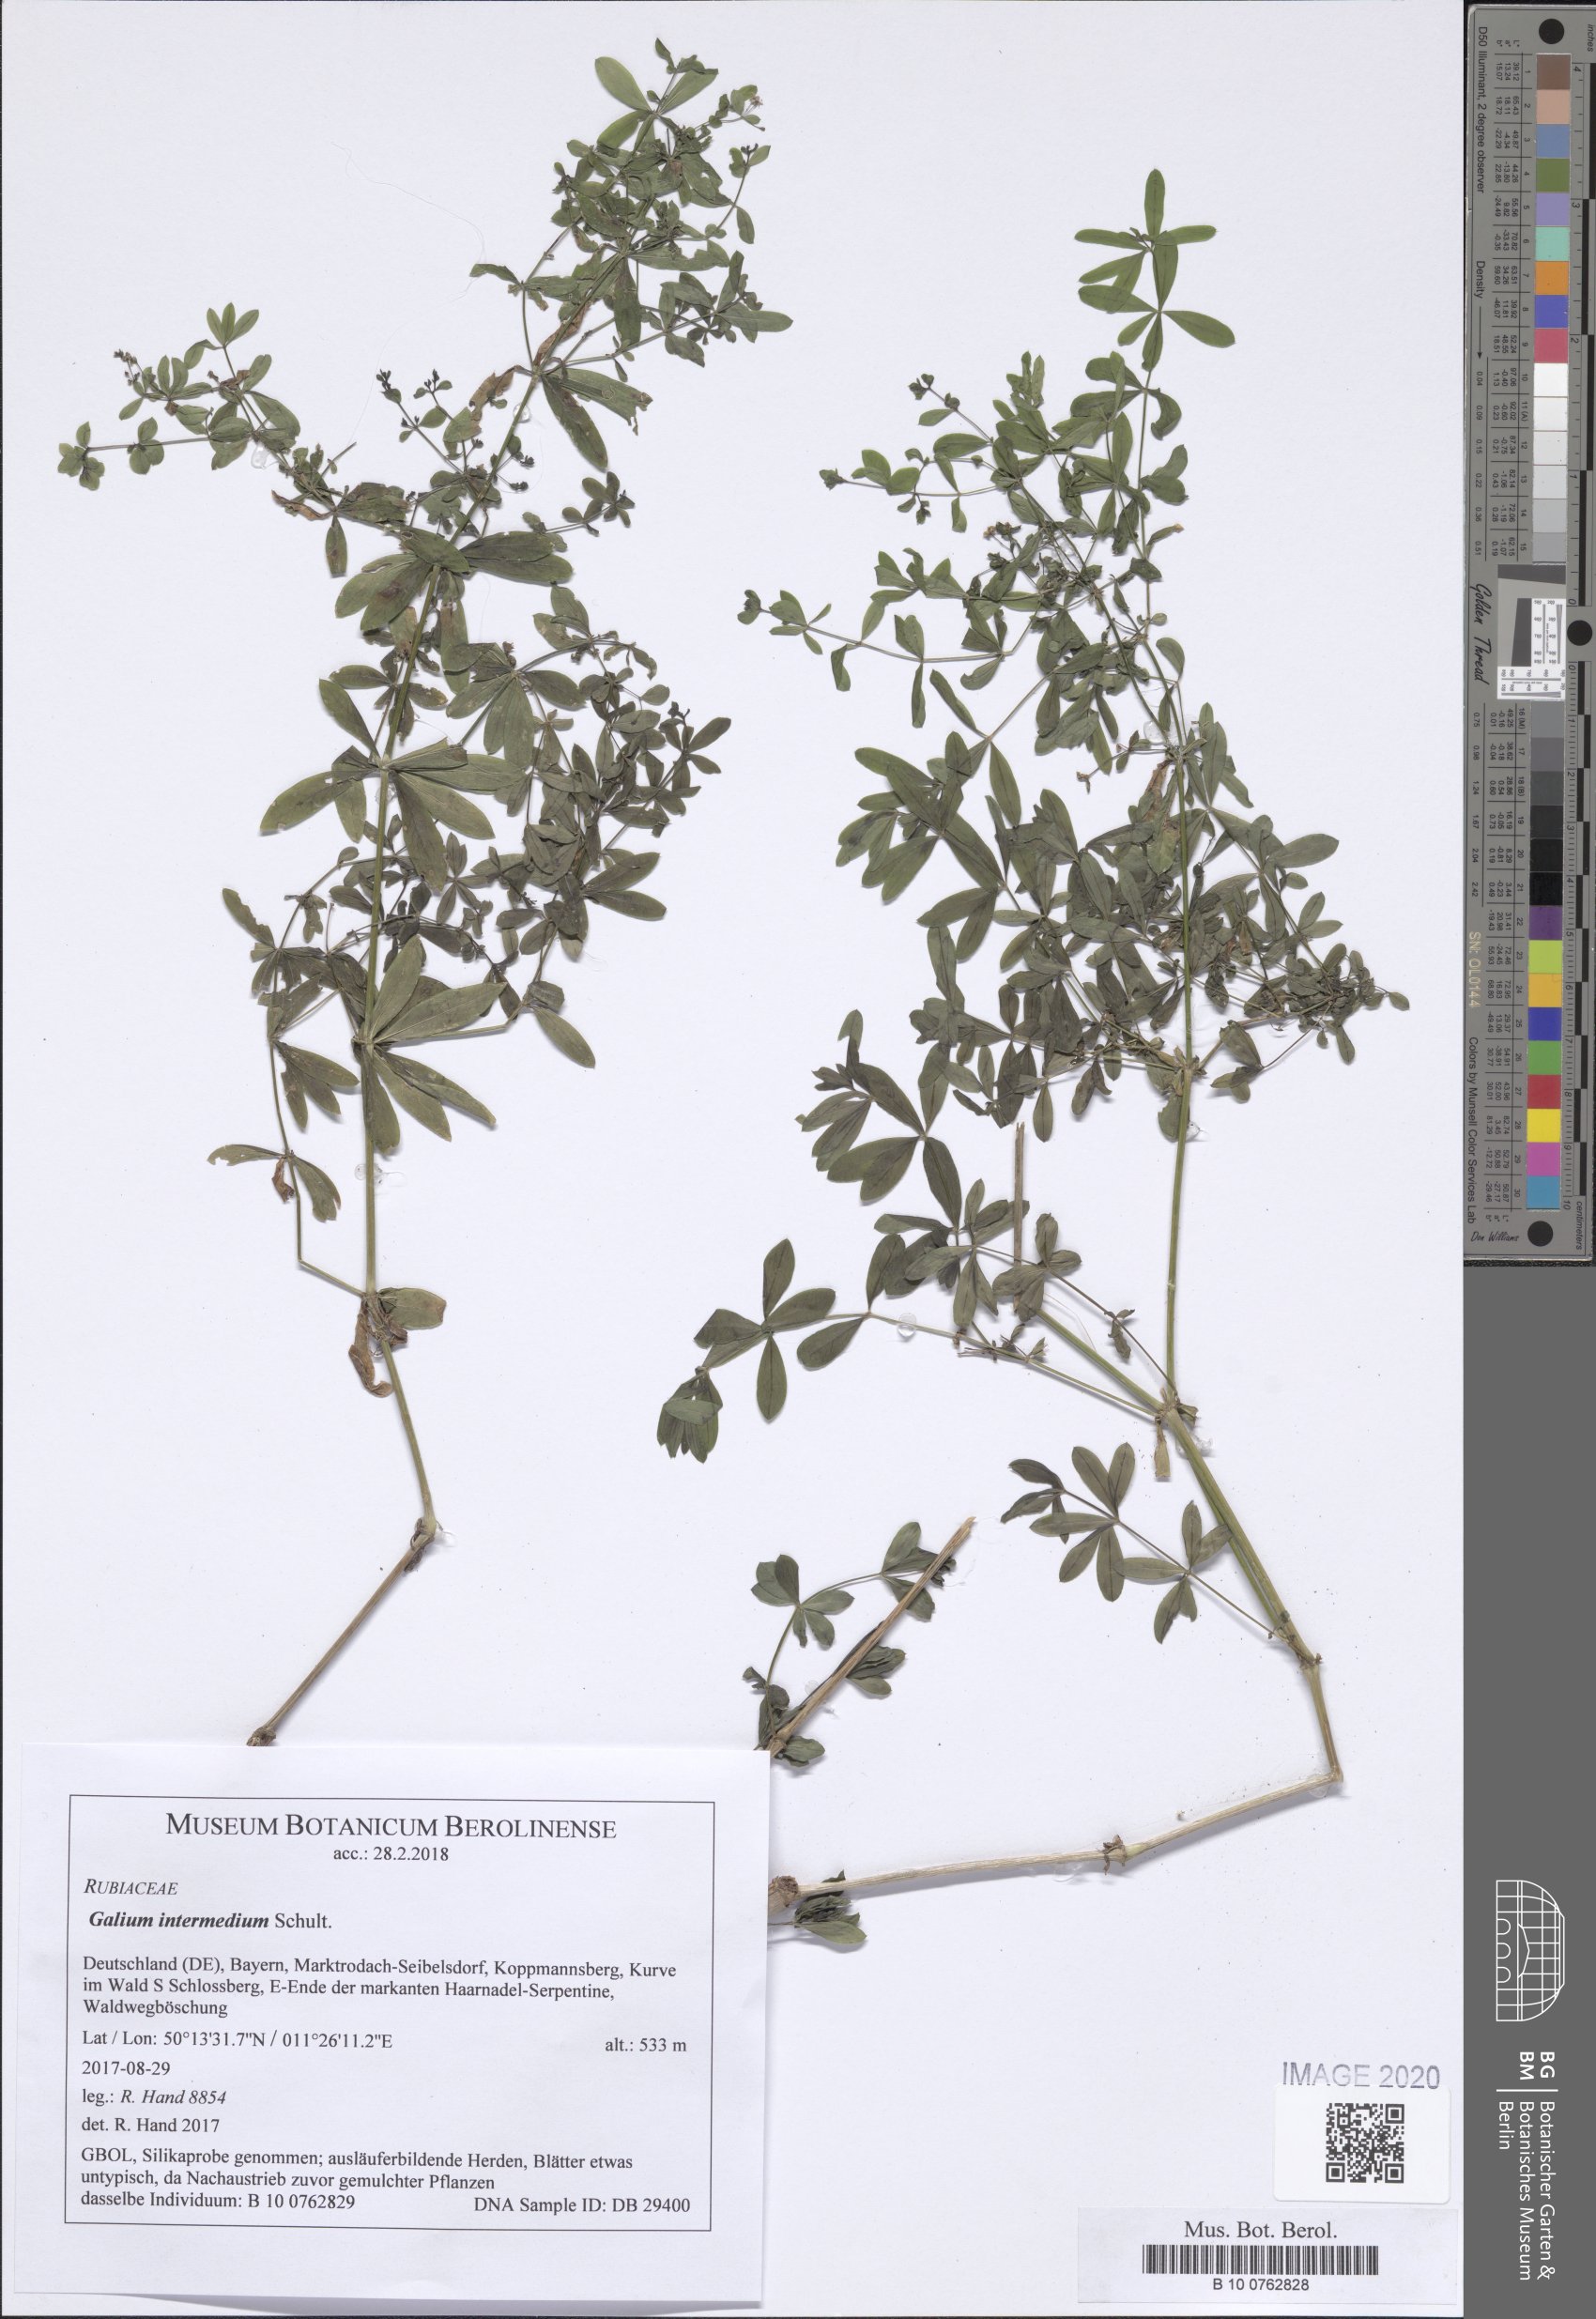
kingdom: Plantae
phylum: Tracheophyta
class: Magnoliopsida
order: Gentianales
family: Rubiaceae
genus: Galium
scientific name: Galium intermedium
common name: Bedstraw
